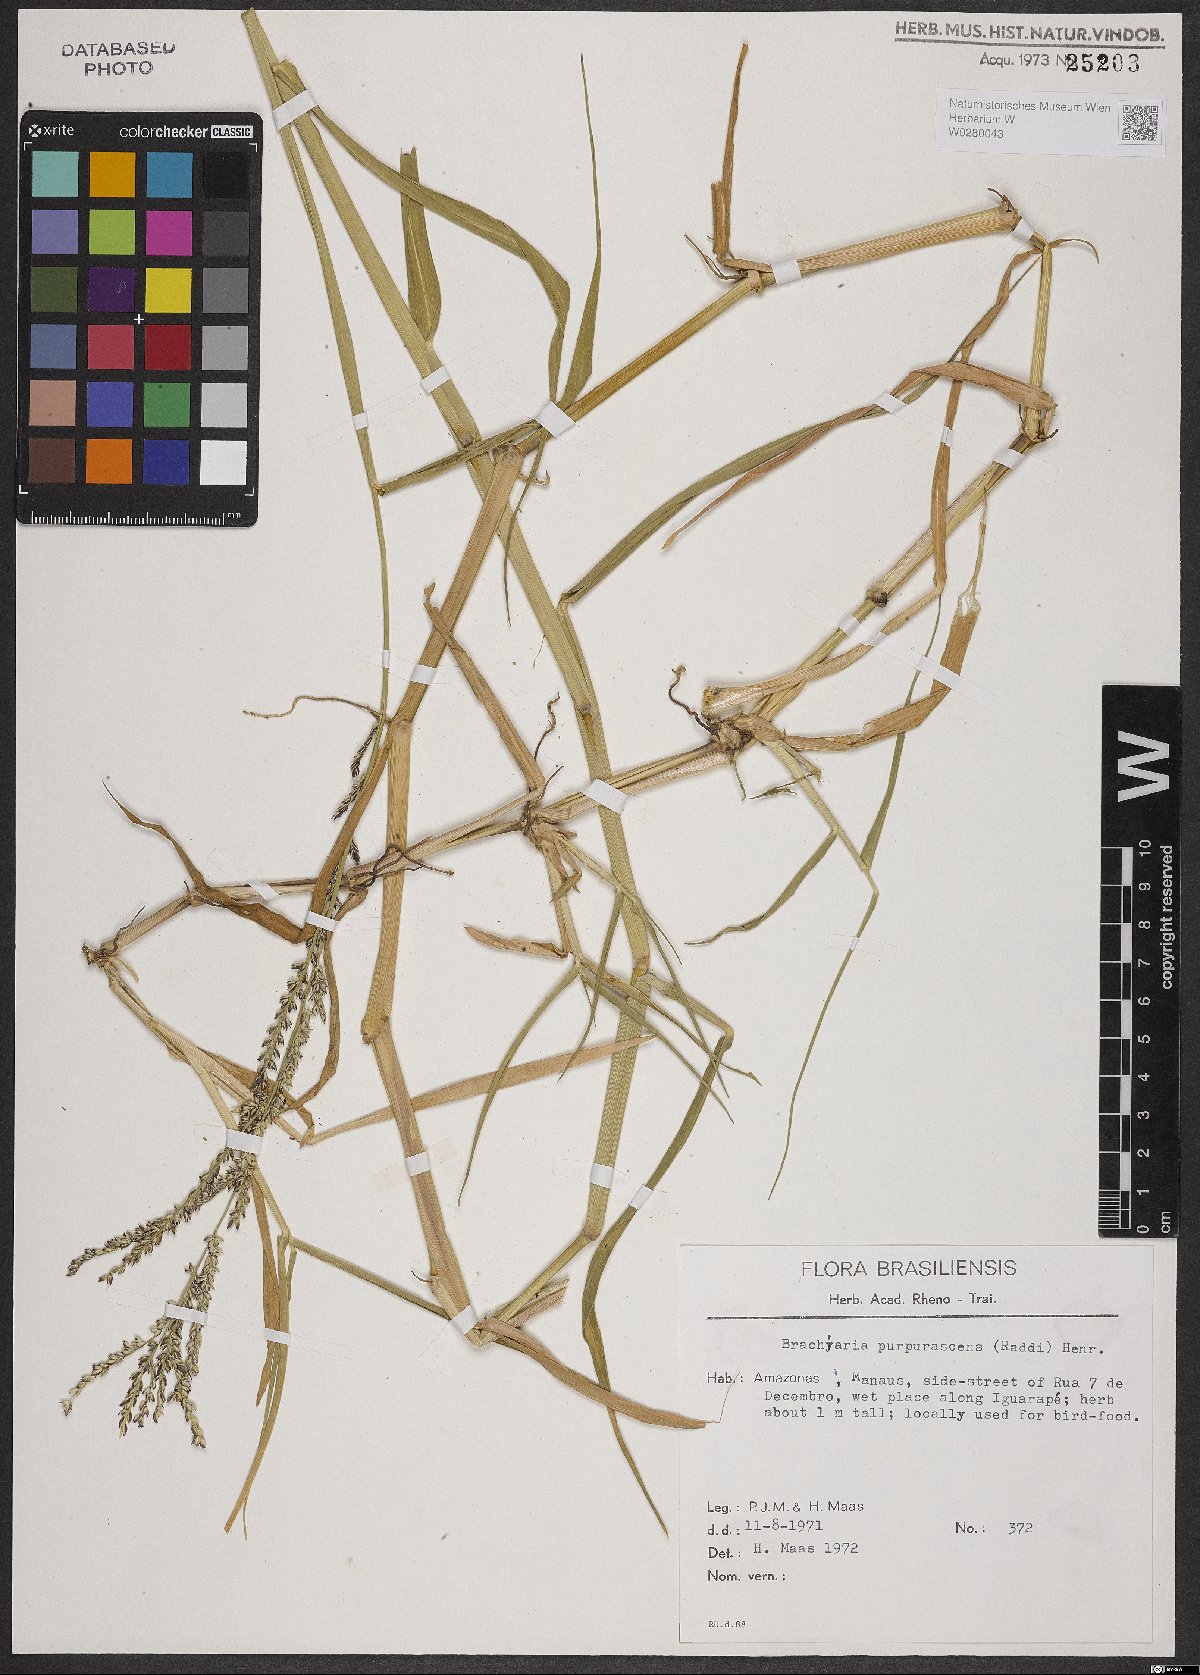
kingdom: Plantae
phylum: Tracheophyta
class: Liliopsida
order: Poales
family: Poaceae
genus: Urochloa
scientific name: Urochloa mutica
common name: Para grass
